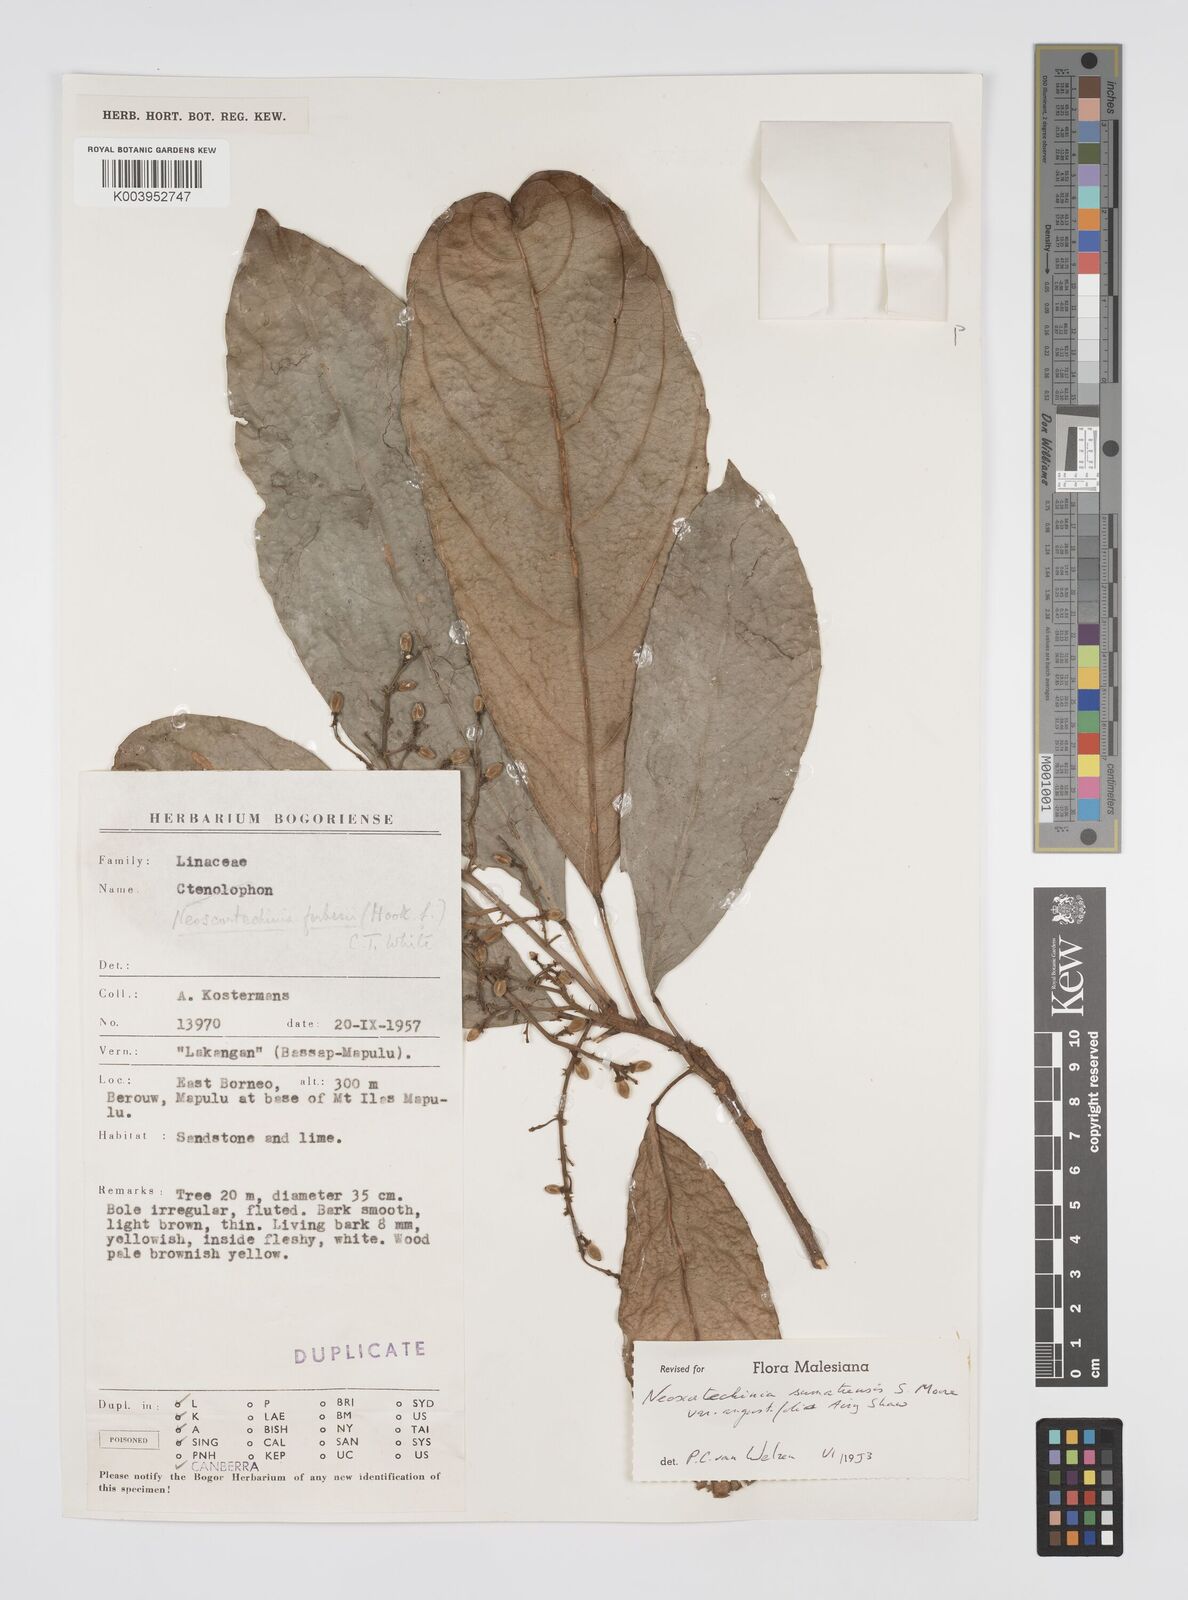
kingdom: Plantae
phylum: Tracheophyta
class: Magnoliopsida
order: Malpighiales
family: Euphorbiaceae
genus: Neoscortechinia
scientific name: Neoscortechinia angustifolia
